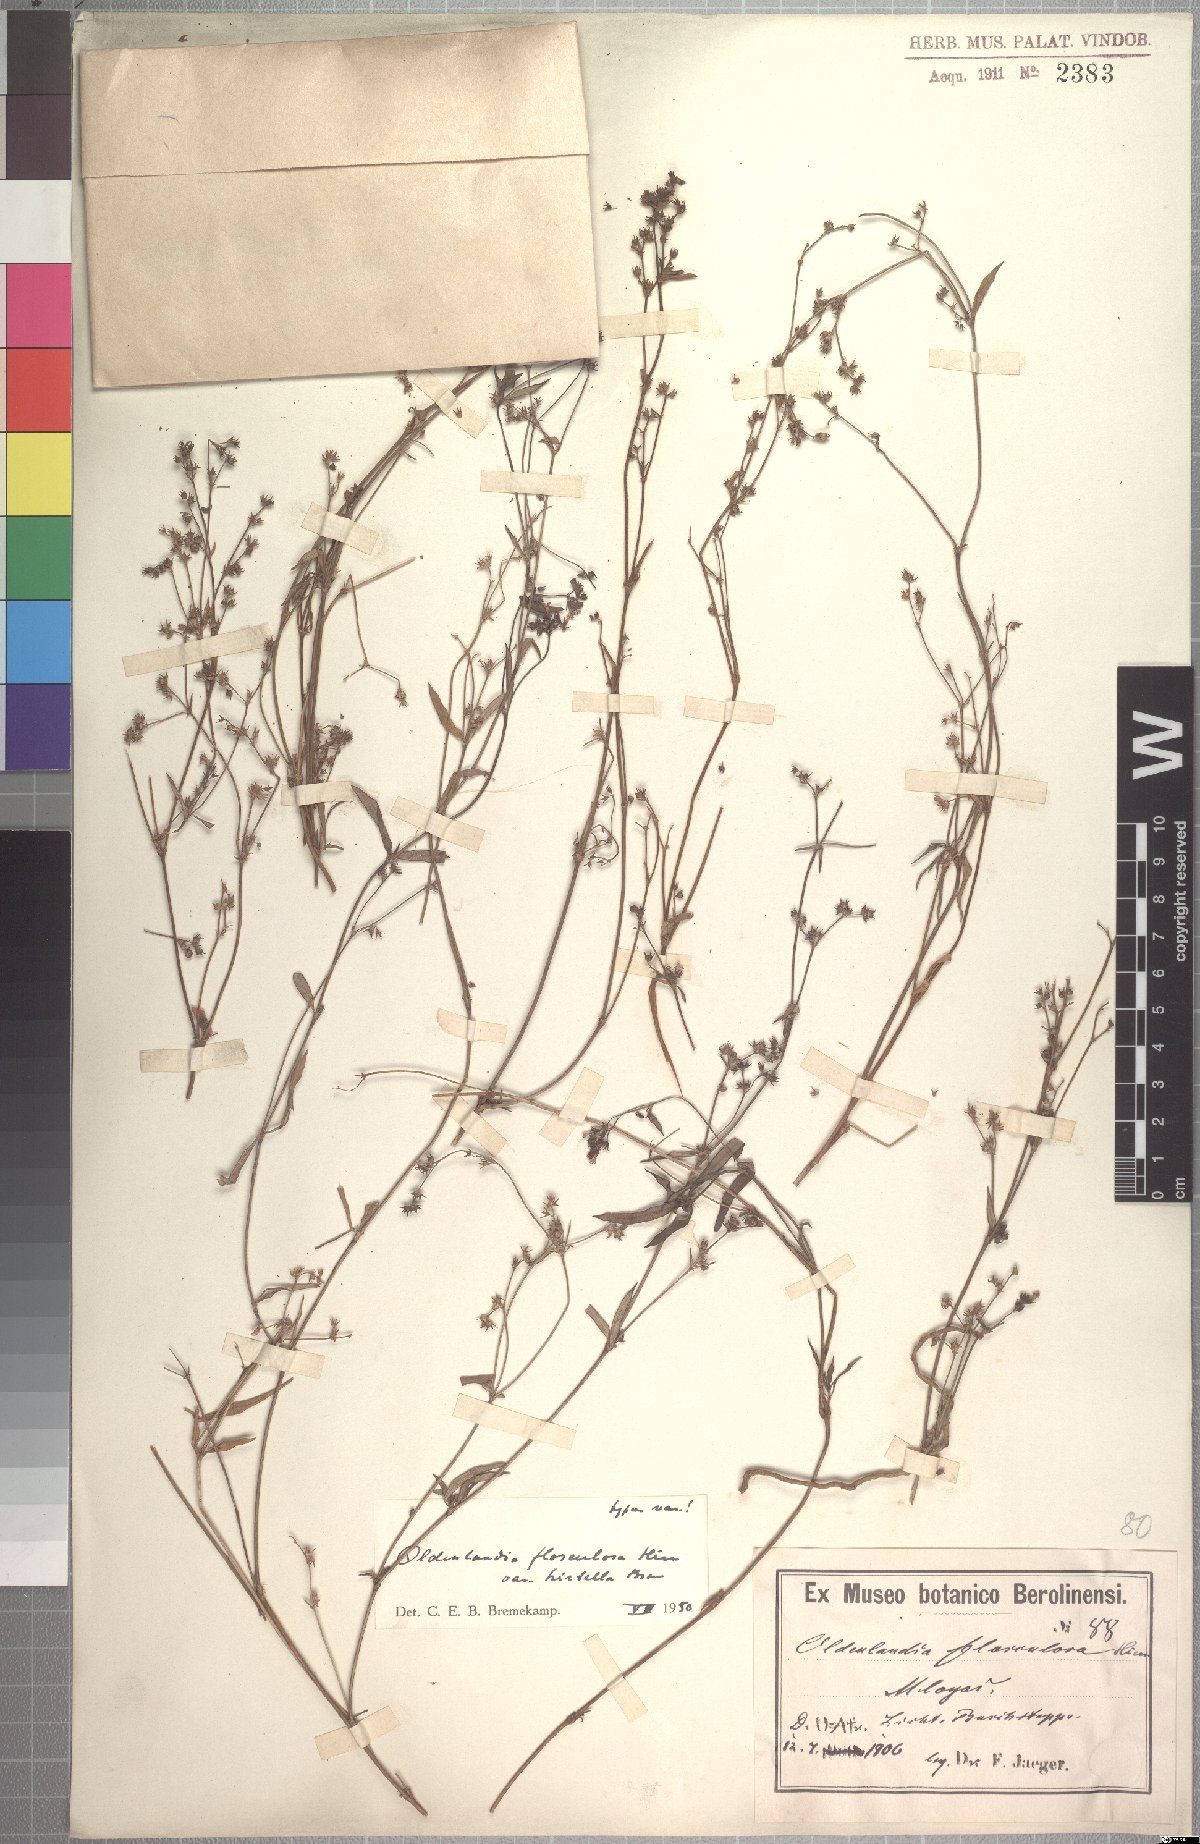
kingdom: Plantae
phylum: Tracheophyta
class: Magnoliopsida
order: Gentianales
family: Rubiaceae
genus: Oldenlandia
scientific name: Oldenlandia flosculosa
